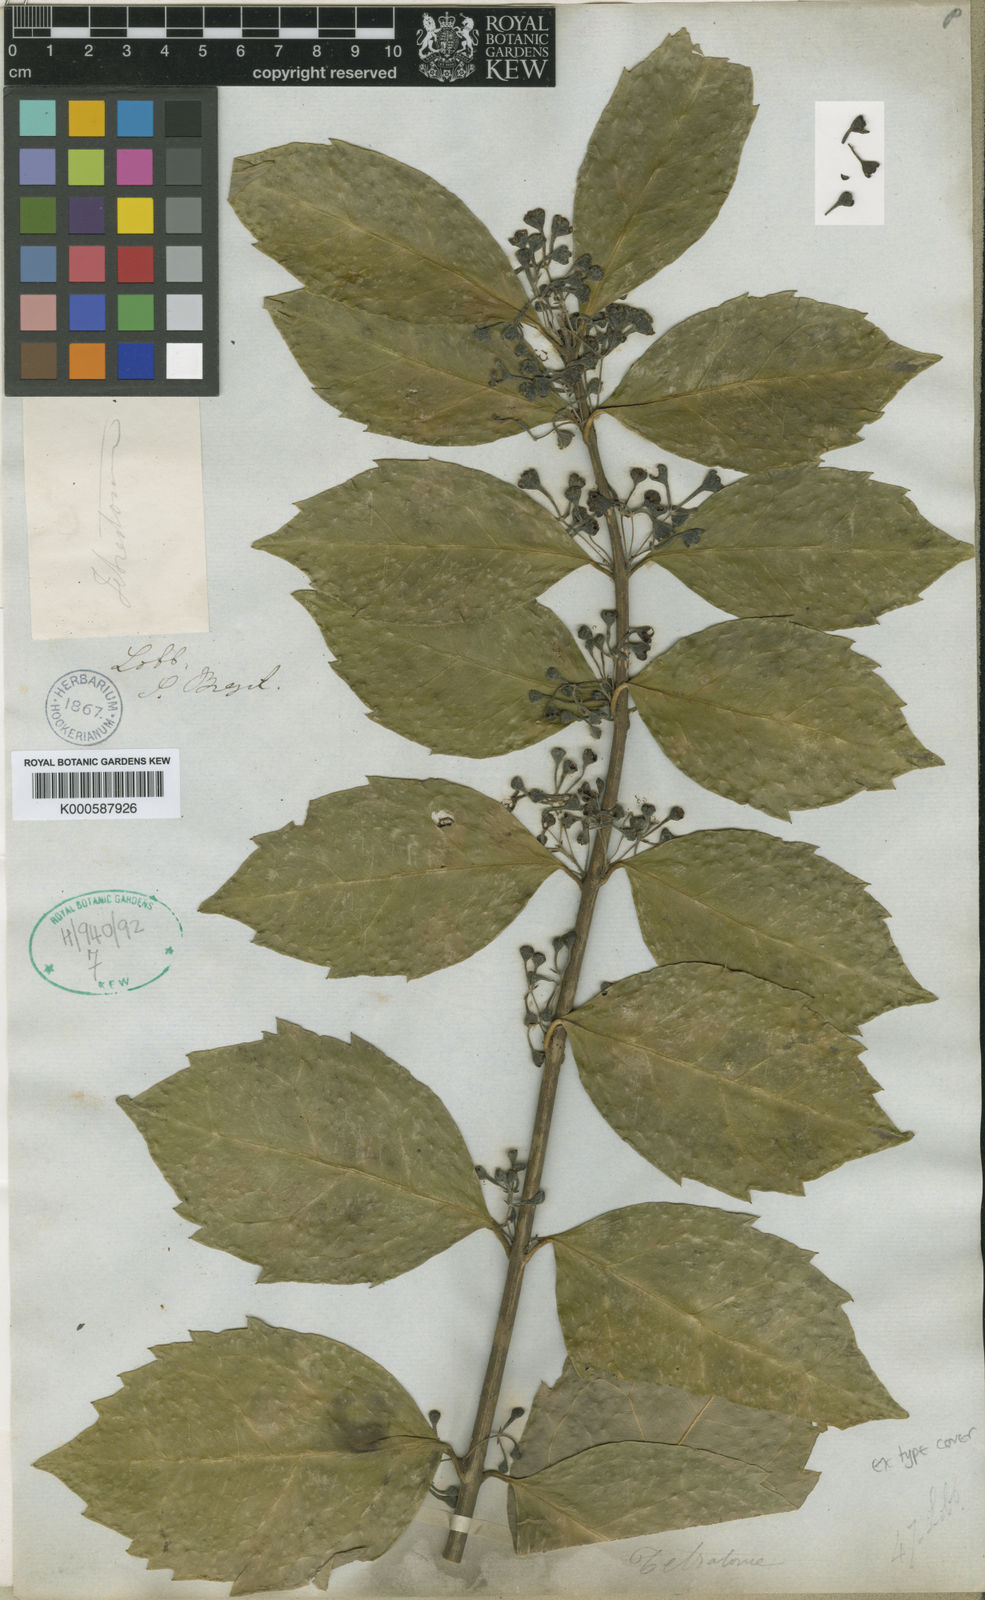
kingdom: Plantae
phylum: Tracheophyta
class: Magnoliopsida
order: Laurales
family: Monimiaceae
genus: Mollinedia
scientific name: Mollinedia ovata
